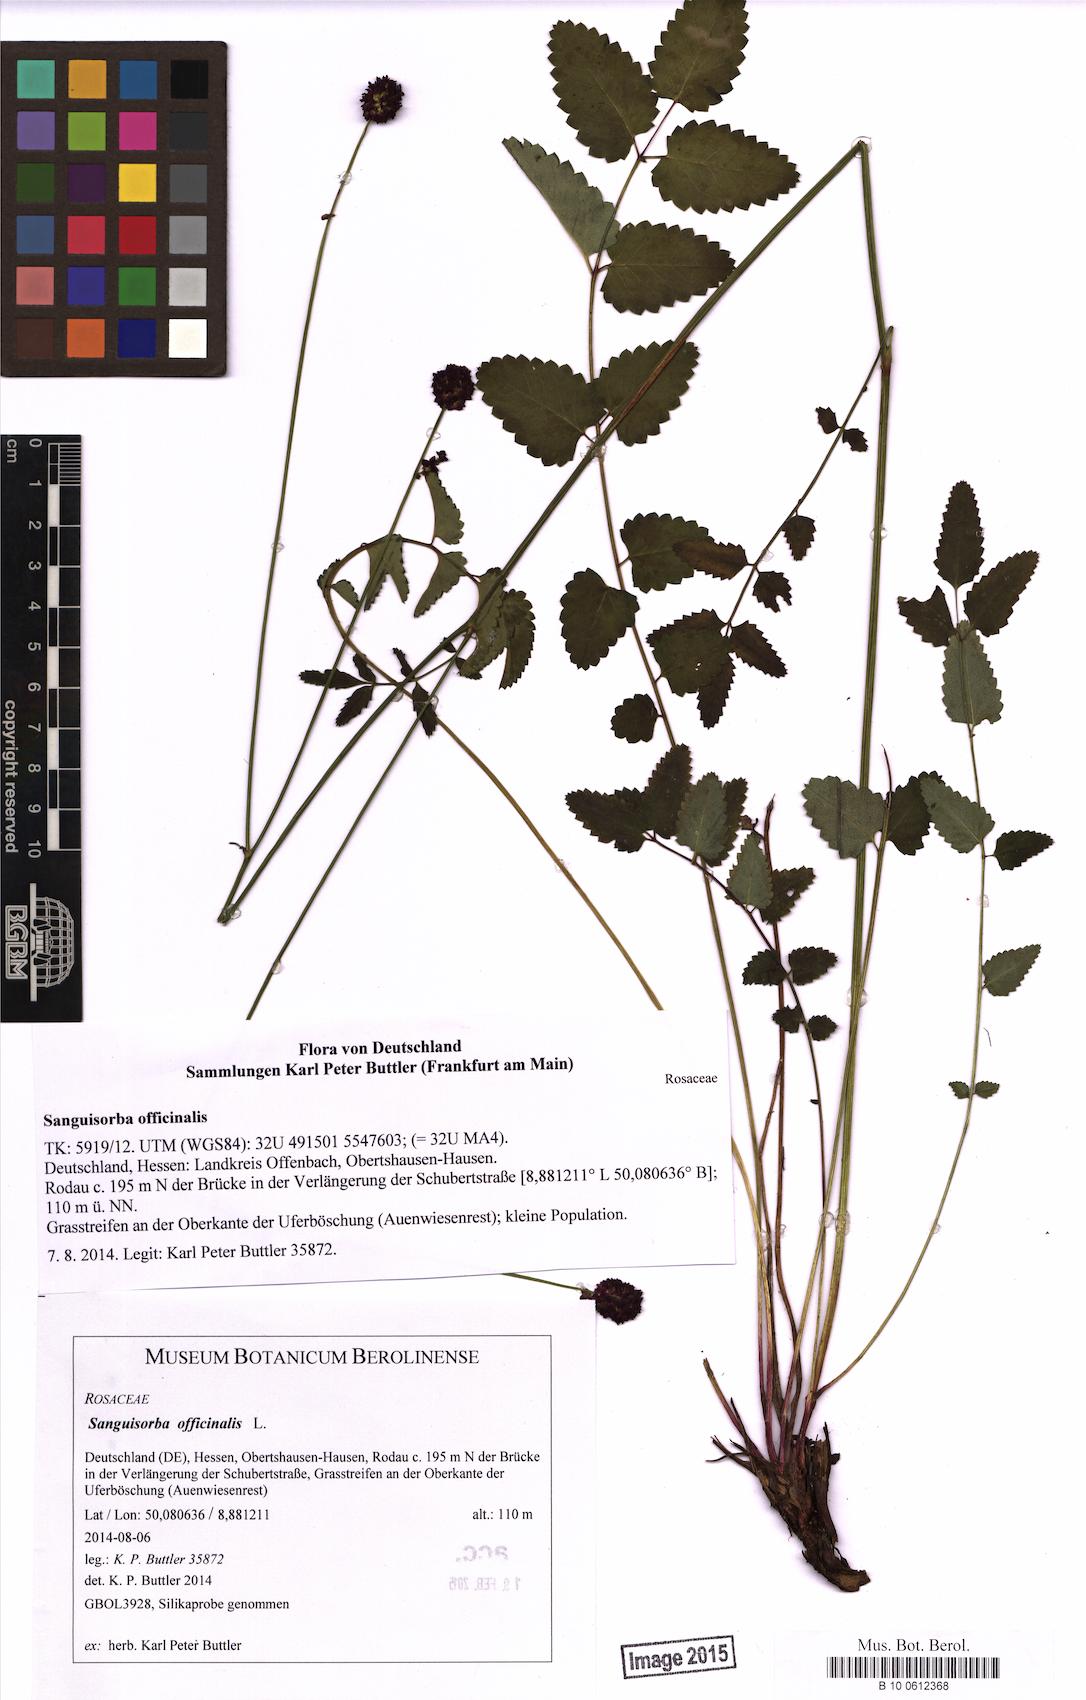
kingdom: Plantae
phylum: Tracheophyta
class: Magnoliopsida
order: Rosales
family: Rosaceae
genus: Sanguisorba
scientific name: Sanguisorba officinalis
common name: Great burnet
